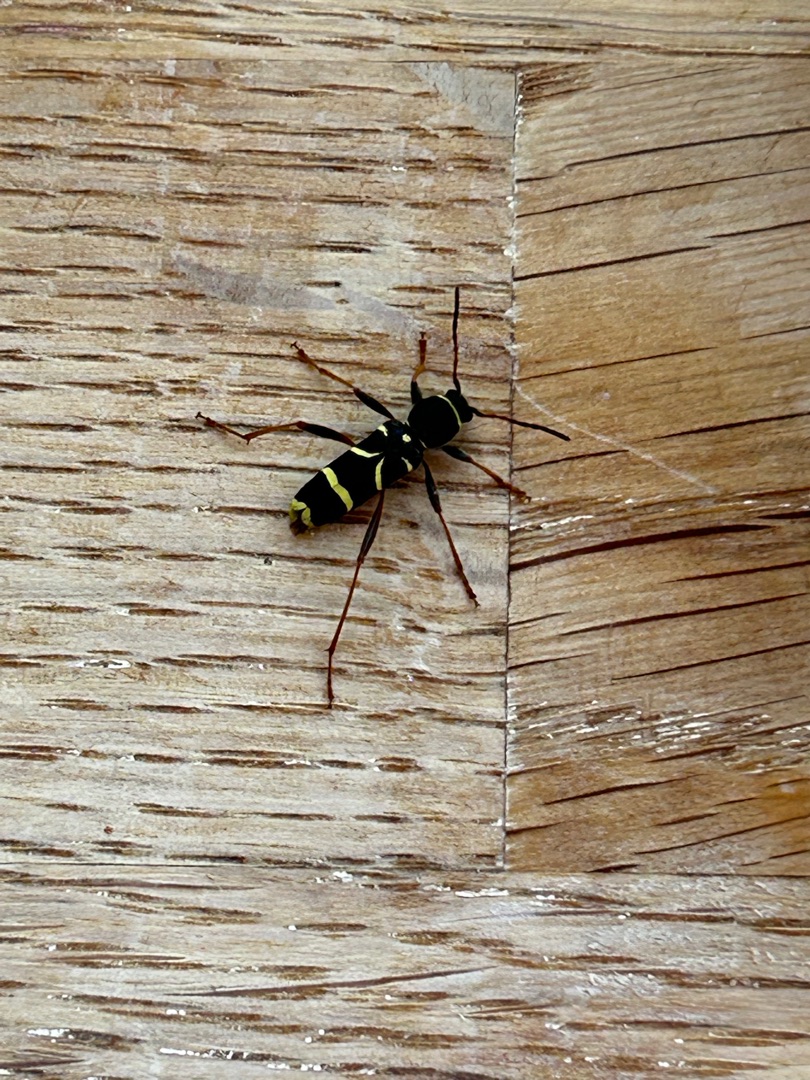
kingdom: Animalia
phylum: Arthropoda
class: Insecta
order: Coleoptera
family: Cerambycidae
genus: Clytus
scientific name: Clytus arietis
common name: Lille hvepsebuk
